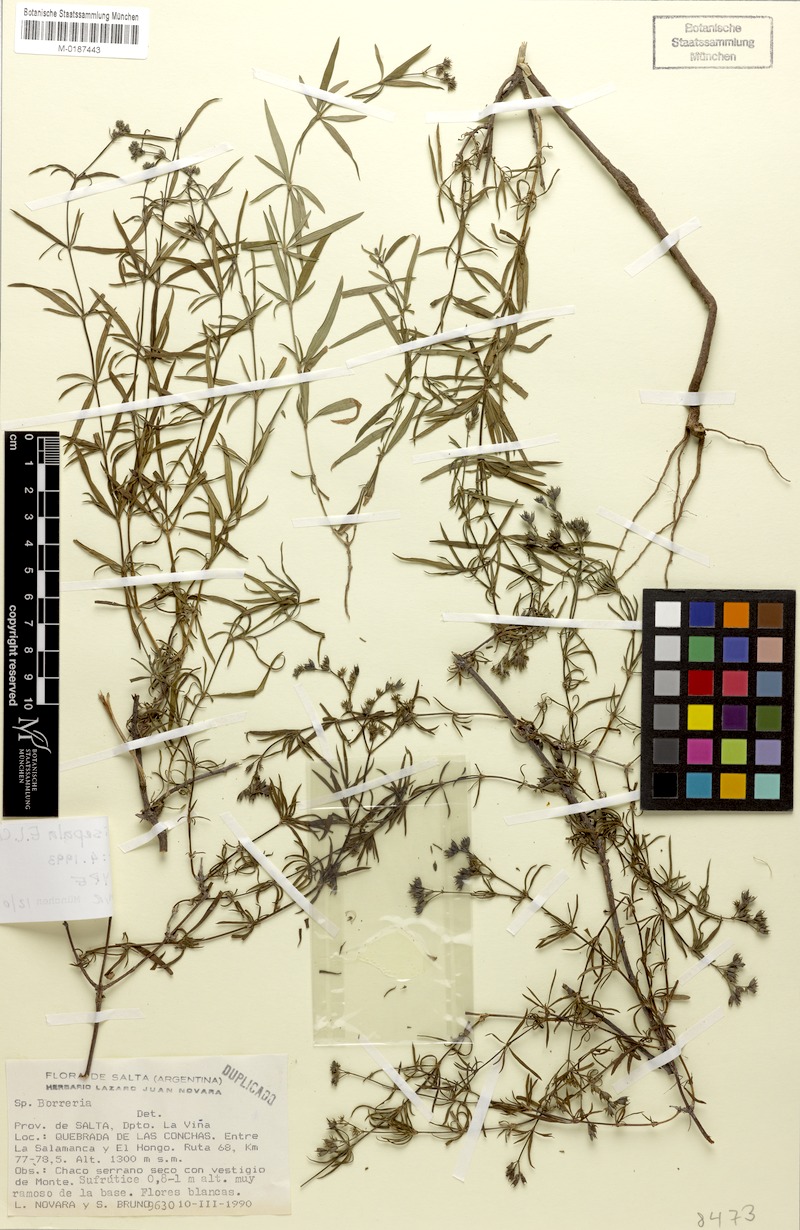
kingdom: Plantae
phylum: Tracheophyta
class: Magnoliopsida
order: Gentianales
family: Rubiaceae
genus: Galianthe
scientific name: Galianthe bisepala
